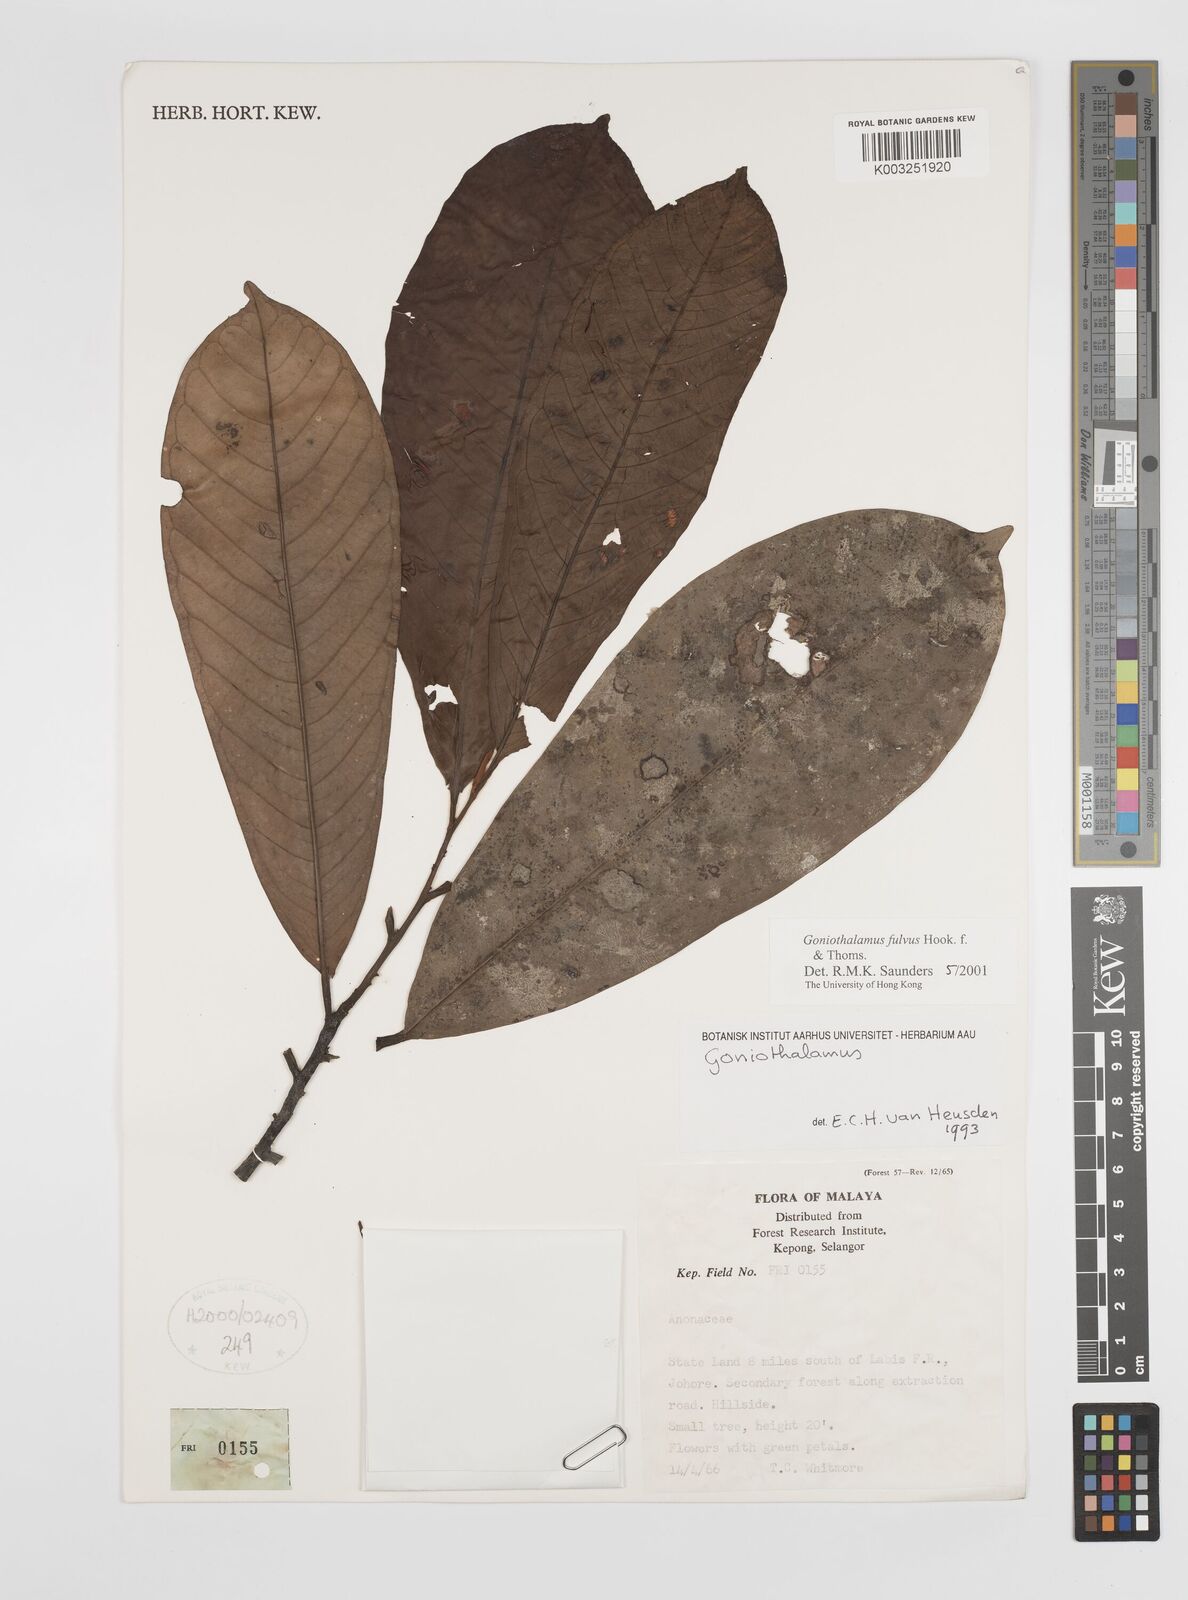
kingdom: Plantae
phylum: Tracheophyta
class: Magnoliopsida
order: Magnoliales
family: Annonaceae
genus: Goniothalamus
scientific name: Goniothalamus fulvus
